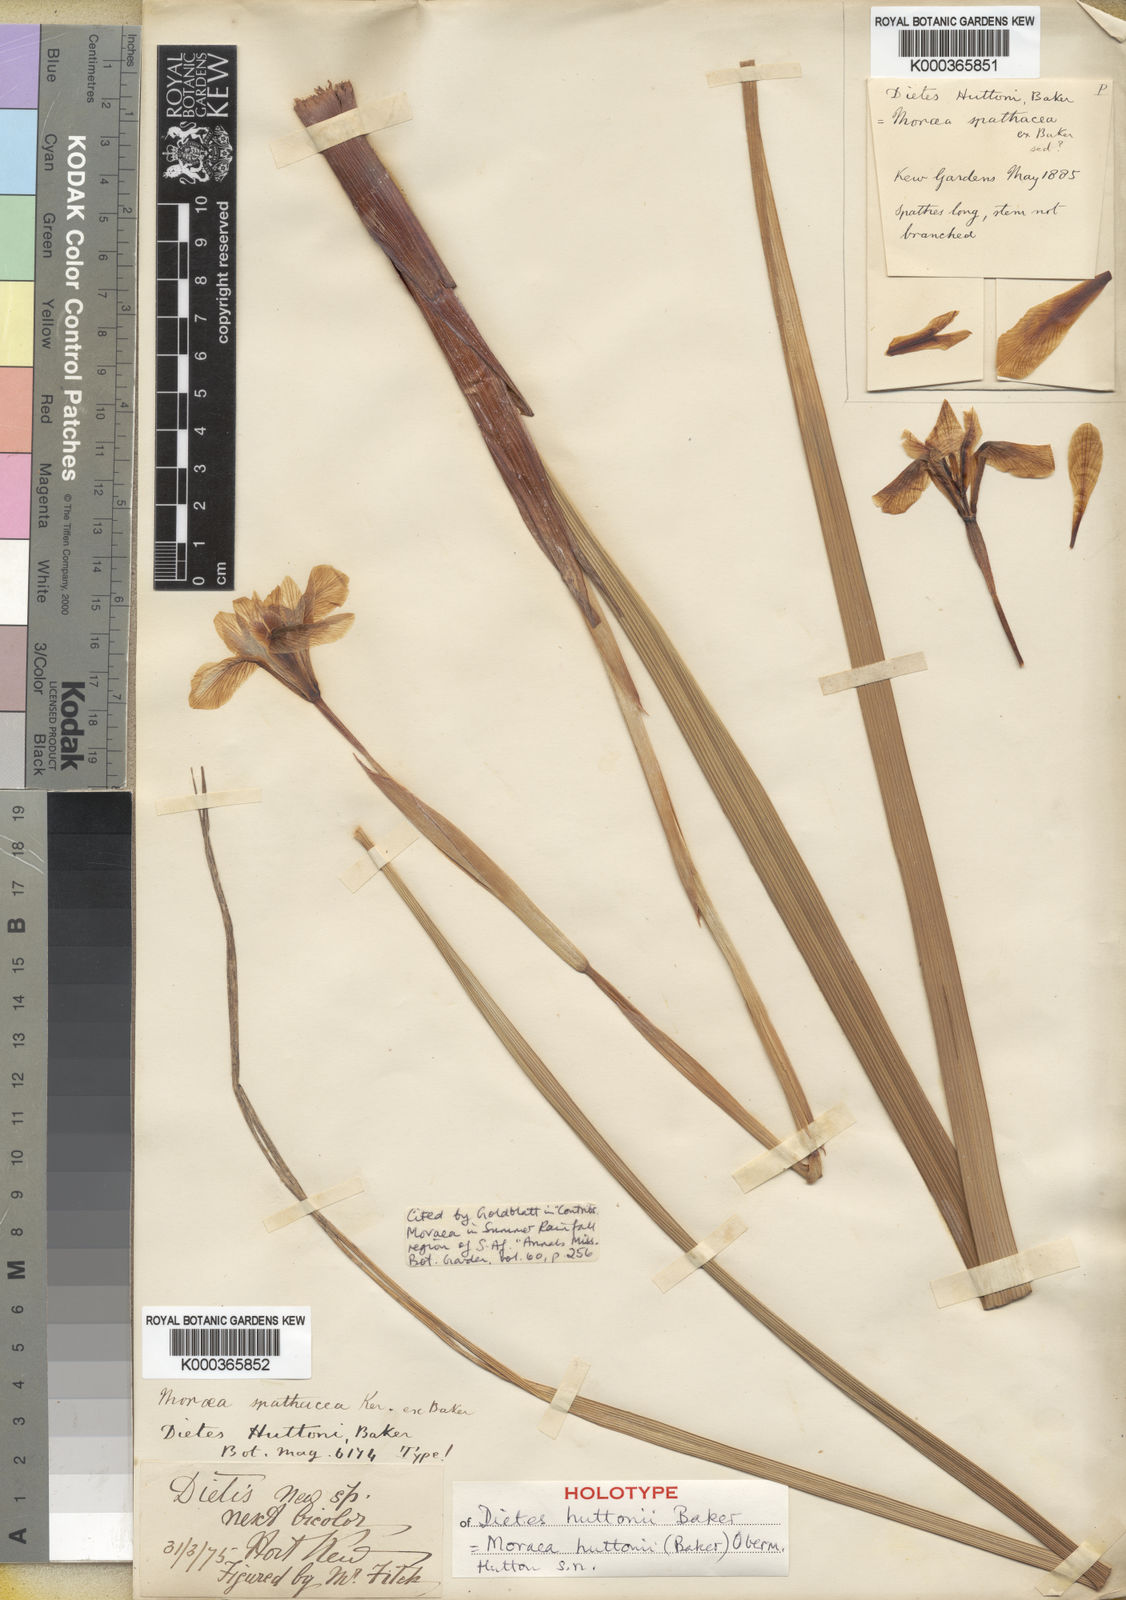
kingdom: Plantae
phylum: Tracheophyta
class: Liliopsida
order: Asparagales
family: Iridaceae
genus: Moraea
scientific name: Moraea huttonii
